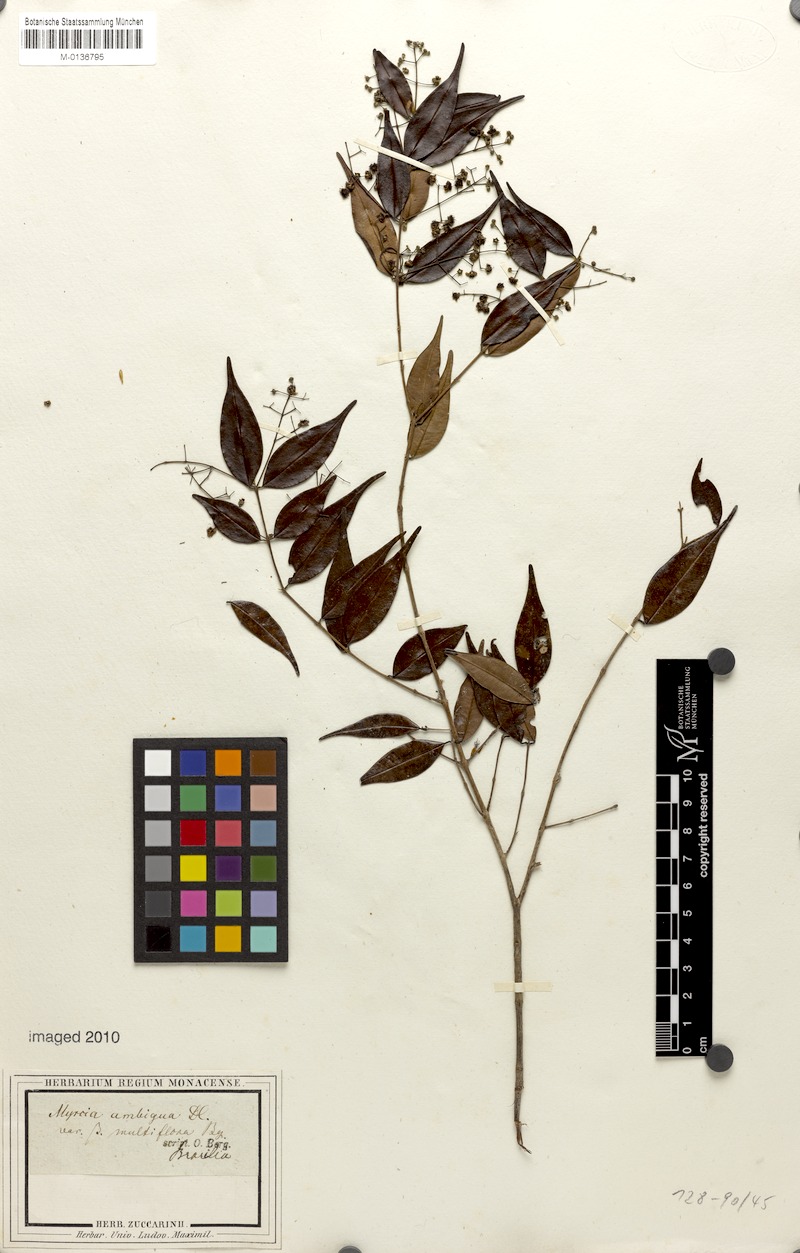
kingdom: Plantae
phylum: Tracheophyta
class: Magnoliopsida
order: Myrtales
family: Myrtaceae
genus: Myrcia
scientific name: Myrcia sylvatica
